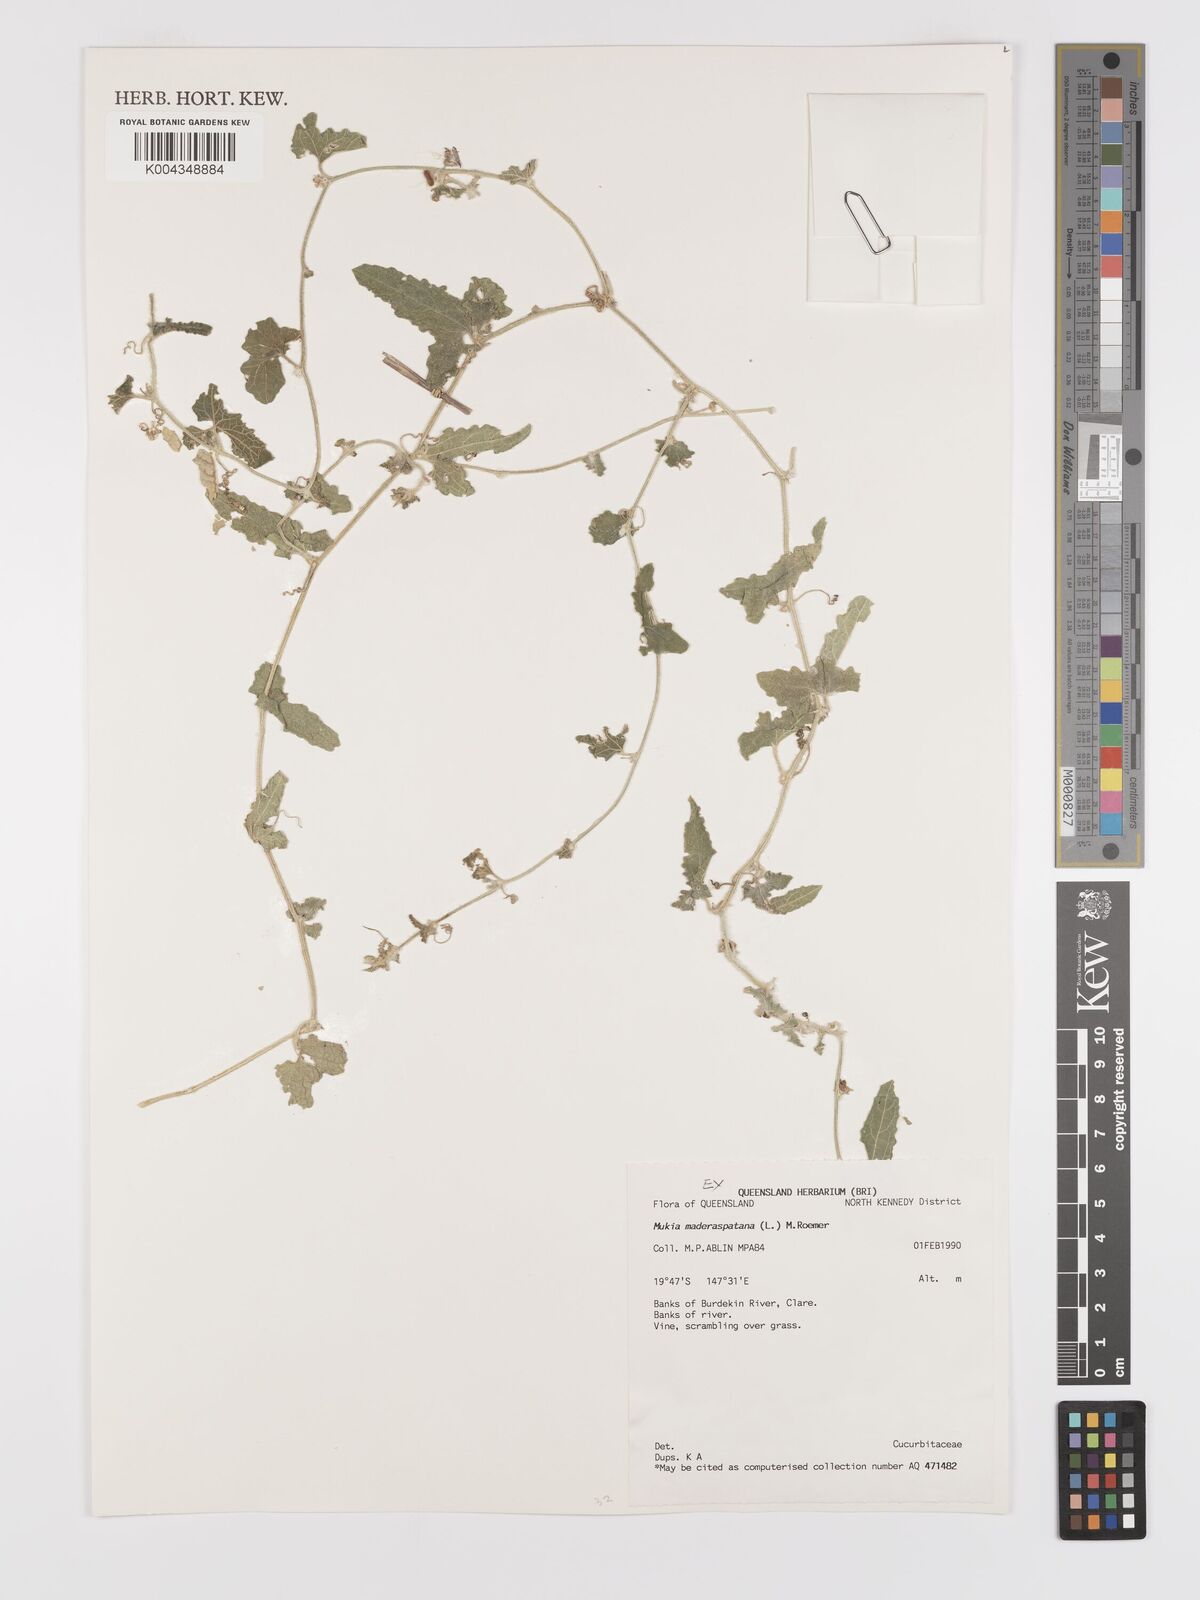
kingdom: Animalia
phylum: Arthropoda
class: Insecta
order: Lepidoptera
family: Crambidae
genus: Mukia
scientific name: Mukia
